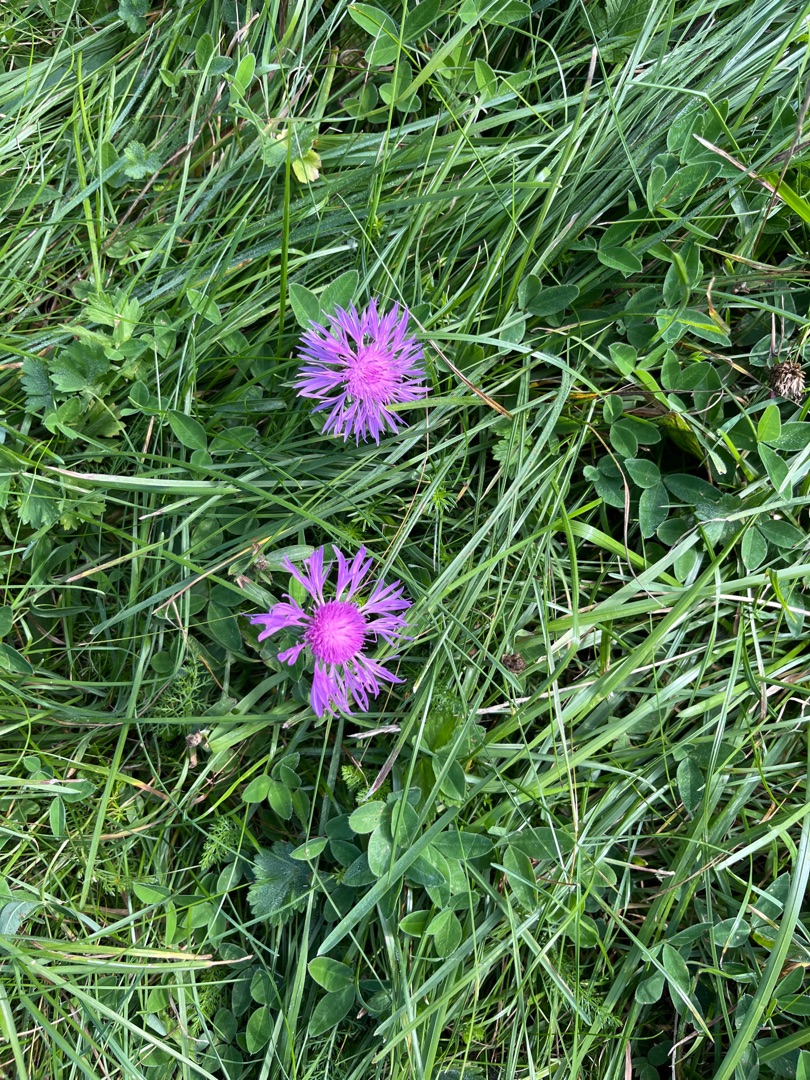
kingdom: Plantae
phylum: Tracheophyta
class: Magnoliopsida
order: Asterales
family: Asteraceae
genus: Centaurea
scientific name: Centaurea jacea
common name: Almindelig knopurt
